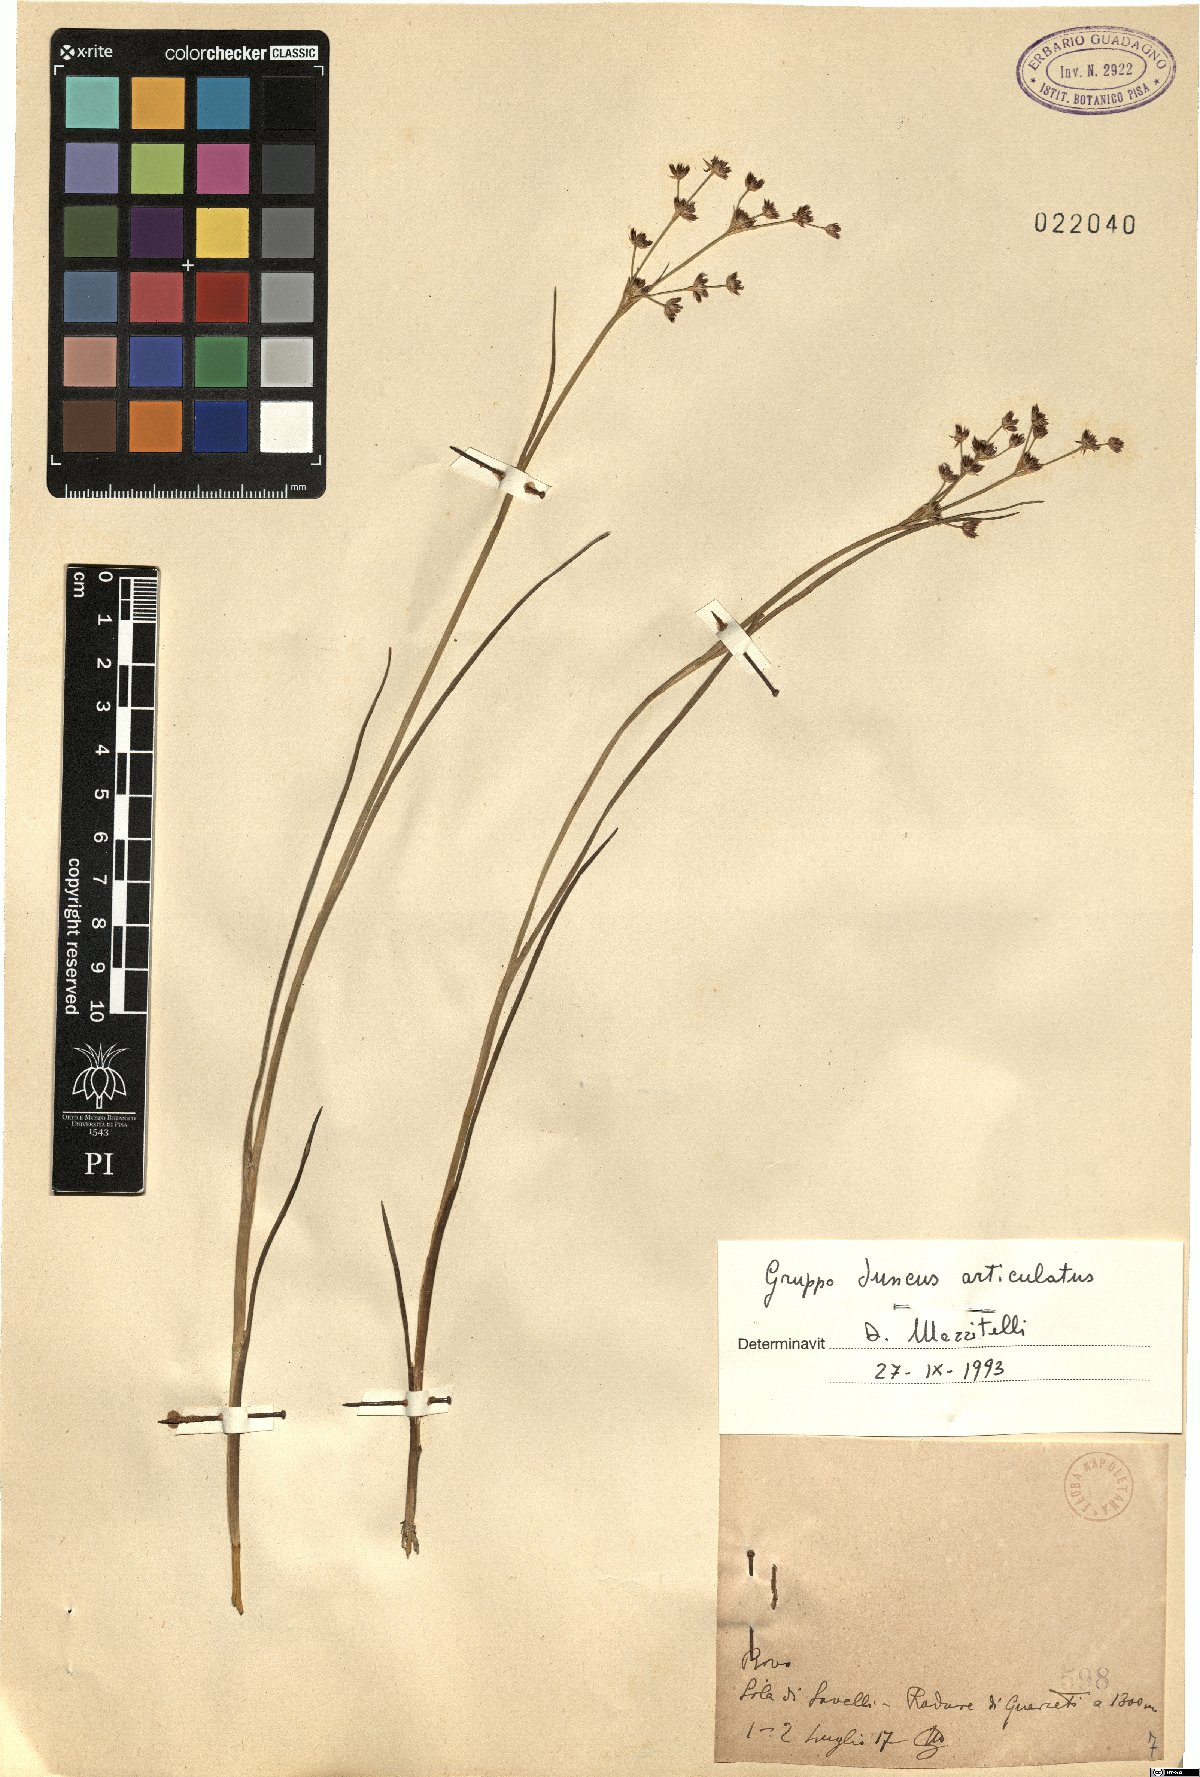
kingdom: Plantae
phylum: Tracheophyta
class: Liliopsida
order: Poales
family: Juncaceae
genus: Juncus
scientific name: Juncus articulatus
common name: Jointed rush
